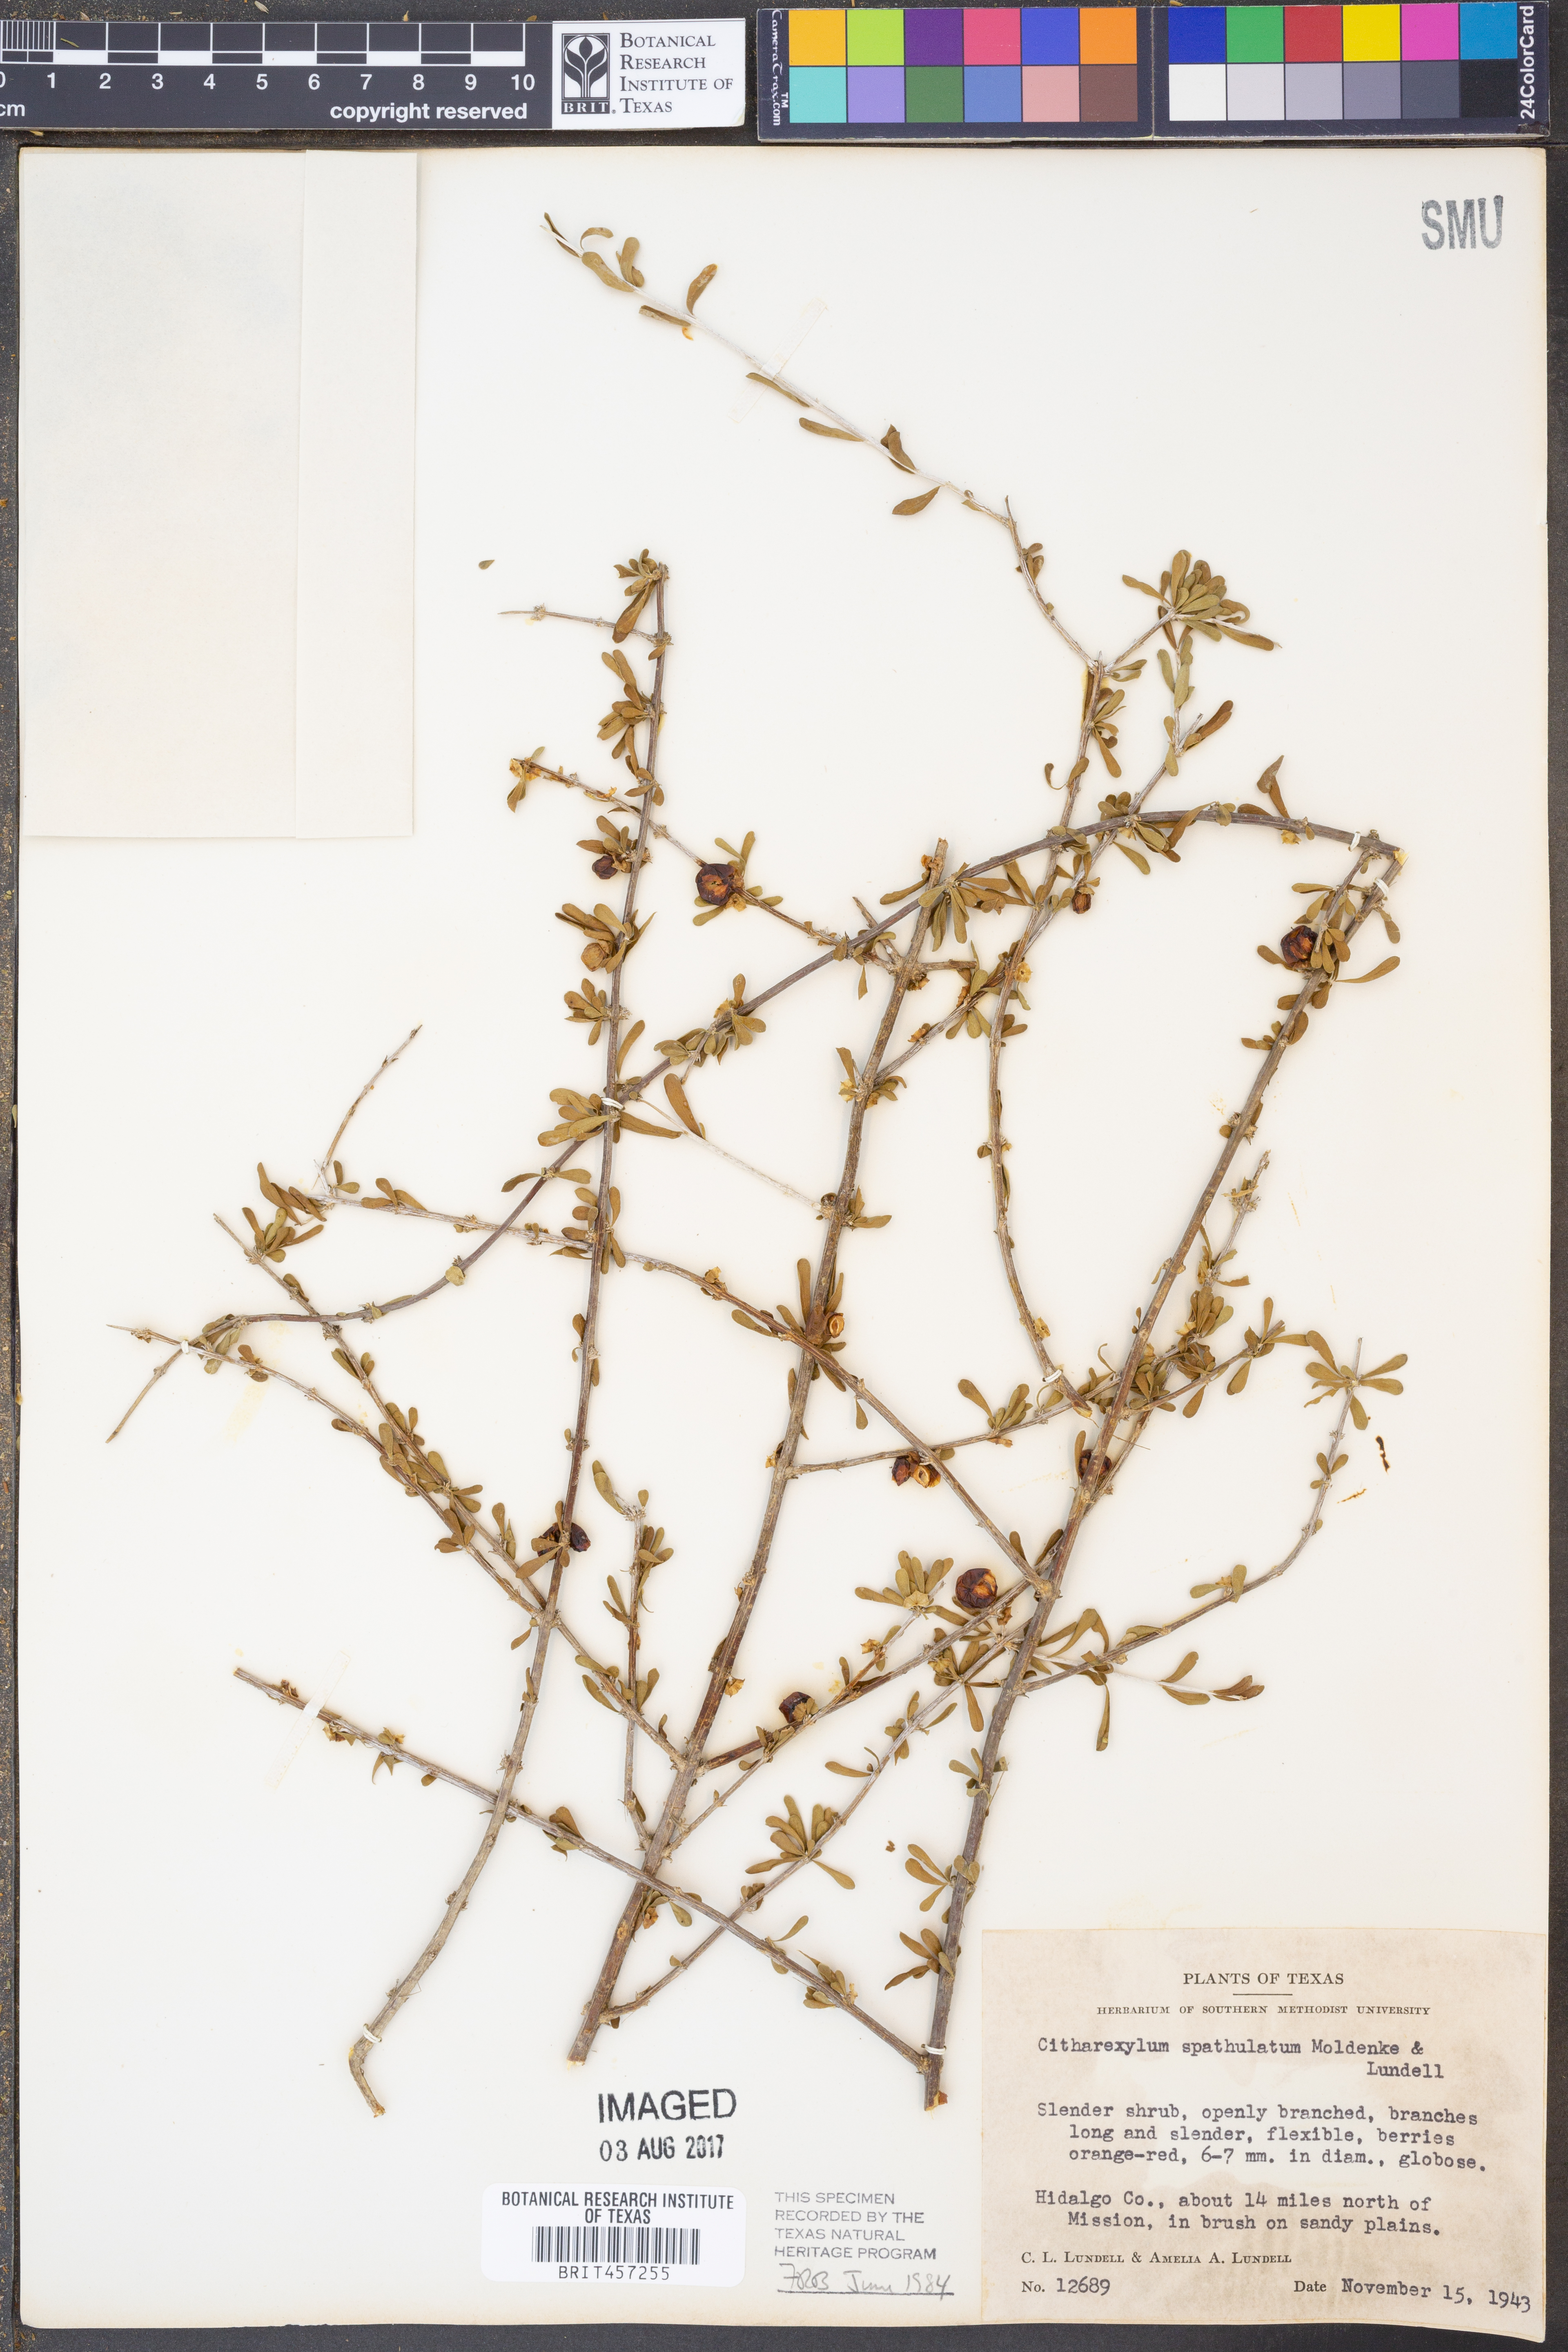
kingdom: Plantae
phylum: Tracheophyta
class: Magnoliopsida
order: Lamiales
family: Verbenaceae
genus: Citharexylum
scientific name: Citharexylum brachyanthum
